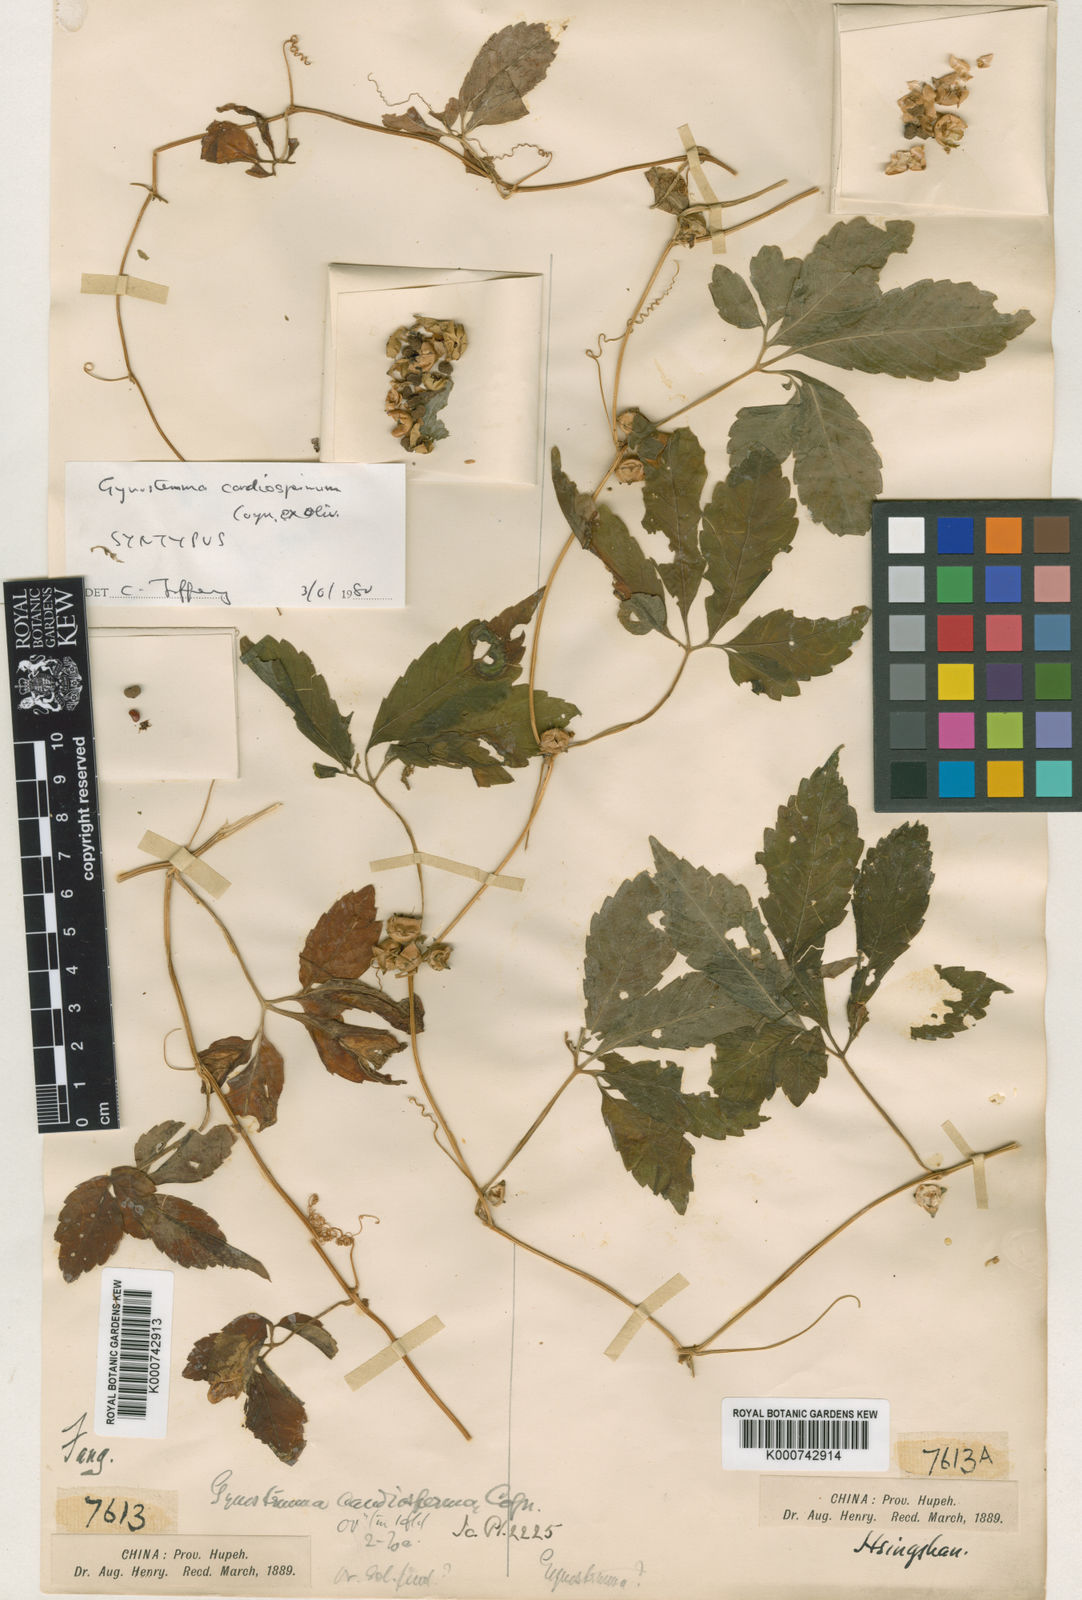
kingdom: Plantae
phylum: Tracheophyta
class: Magnoliopsida
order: Cucurbitales
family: Cucurbitaceae
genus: Gynostemma
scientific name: Gynostemma cardiospermum
